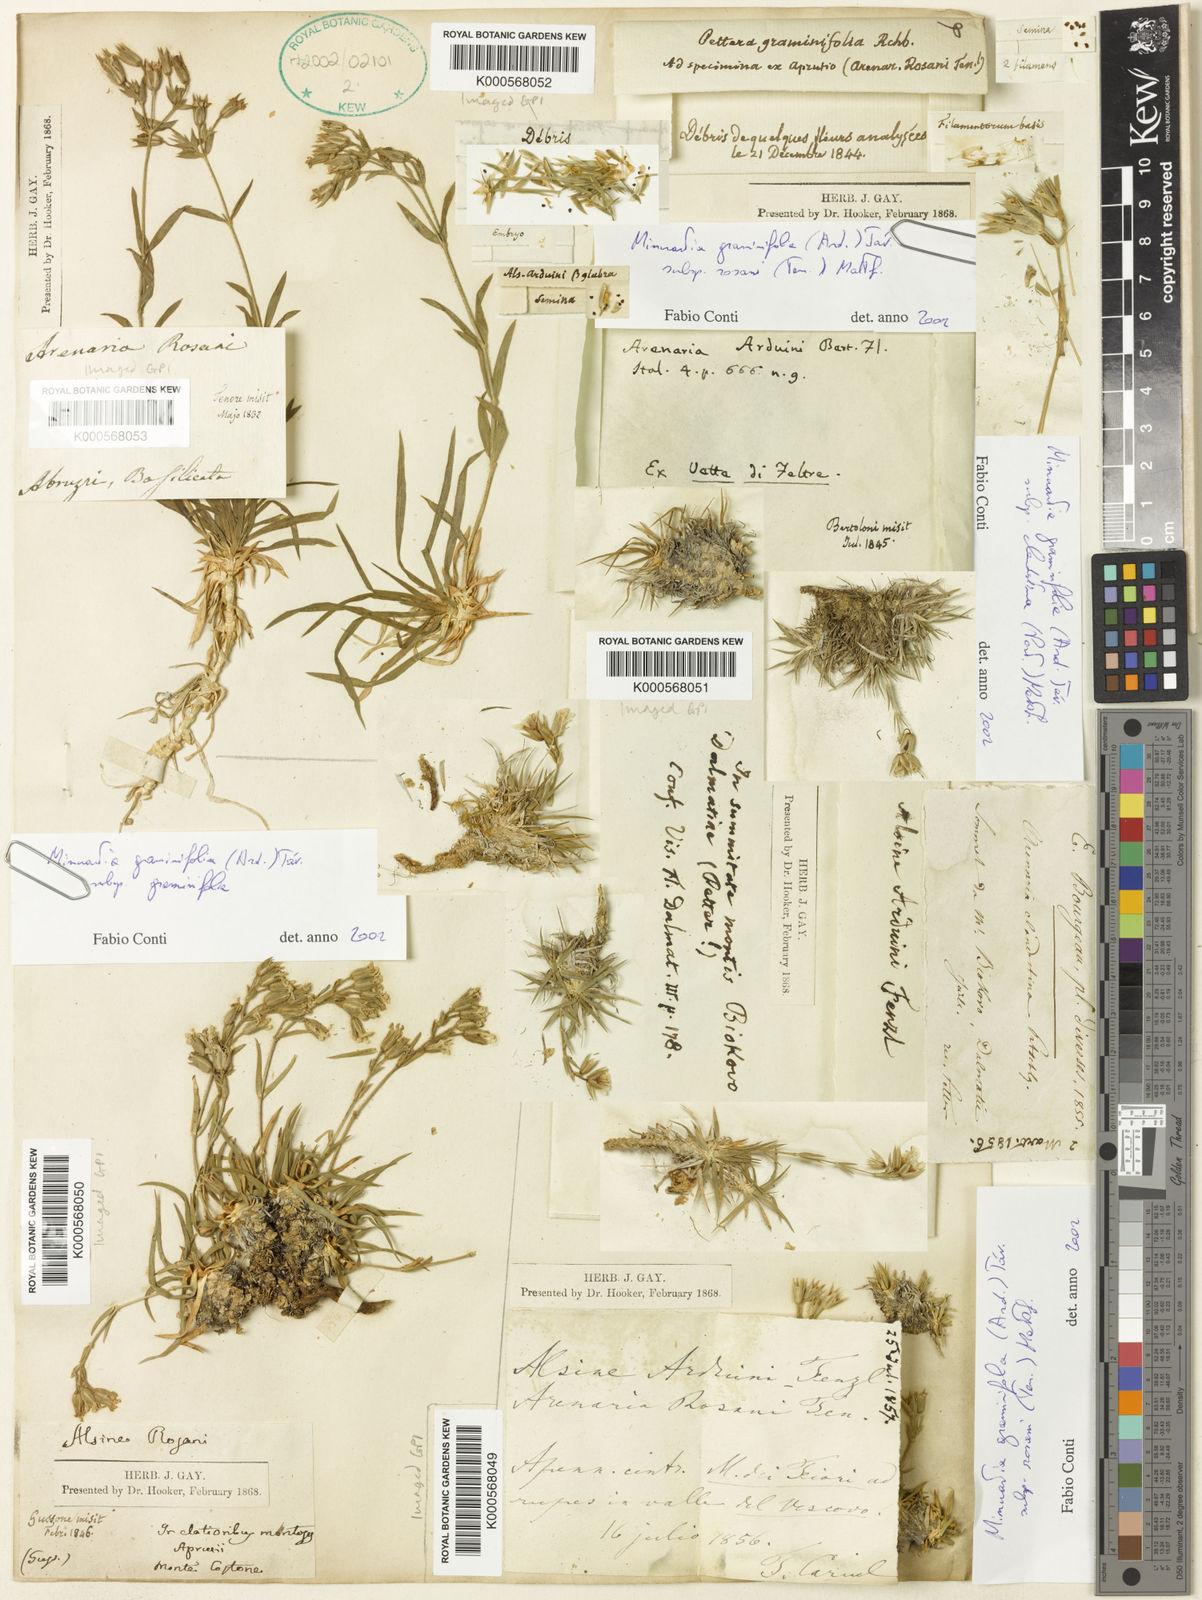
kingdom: Plantae
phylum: Tracheophyta
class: Magnoliopsida
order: Caryophyllales
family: Caryophyllaceae
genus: Mcneillia
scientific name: Mcneillia graminifolia
